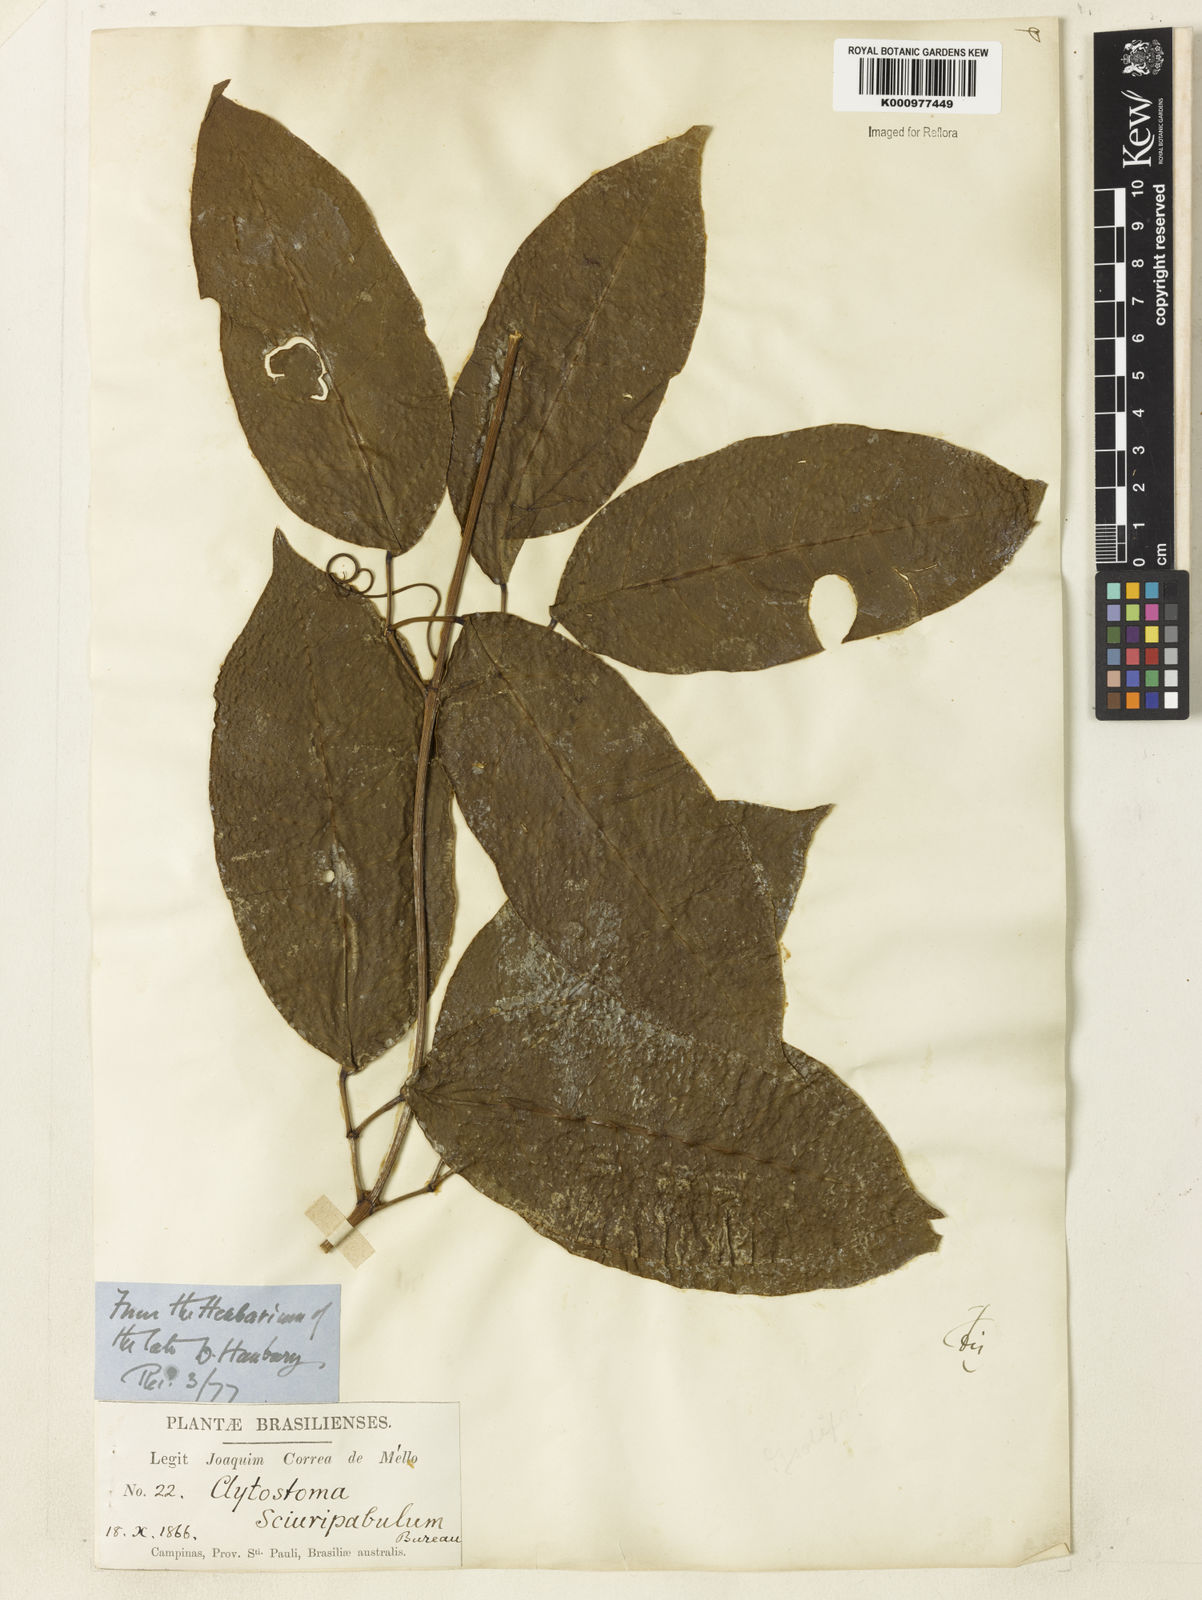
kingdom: Plantae
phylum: Tracheophyta
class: Magnoliopsida
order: Lamiales
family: Bignoniaceae
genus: Bignonia
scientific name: Bignonia
